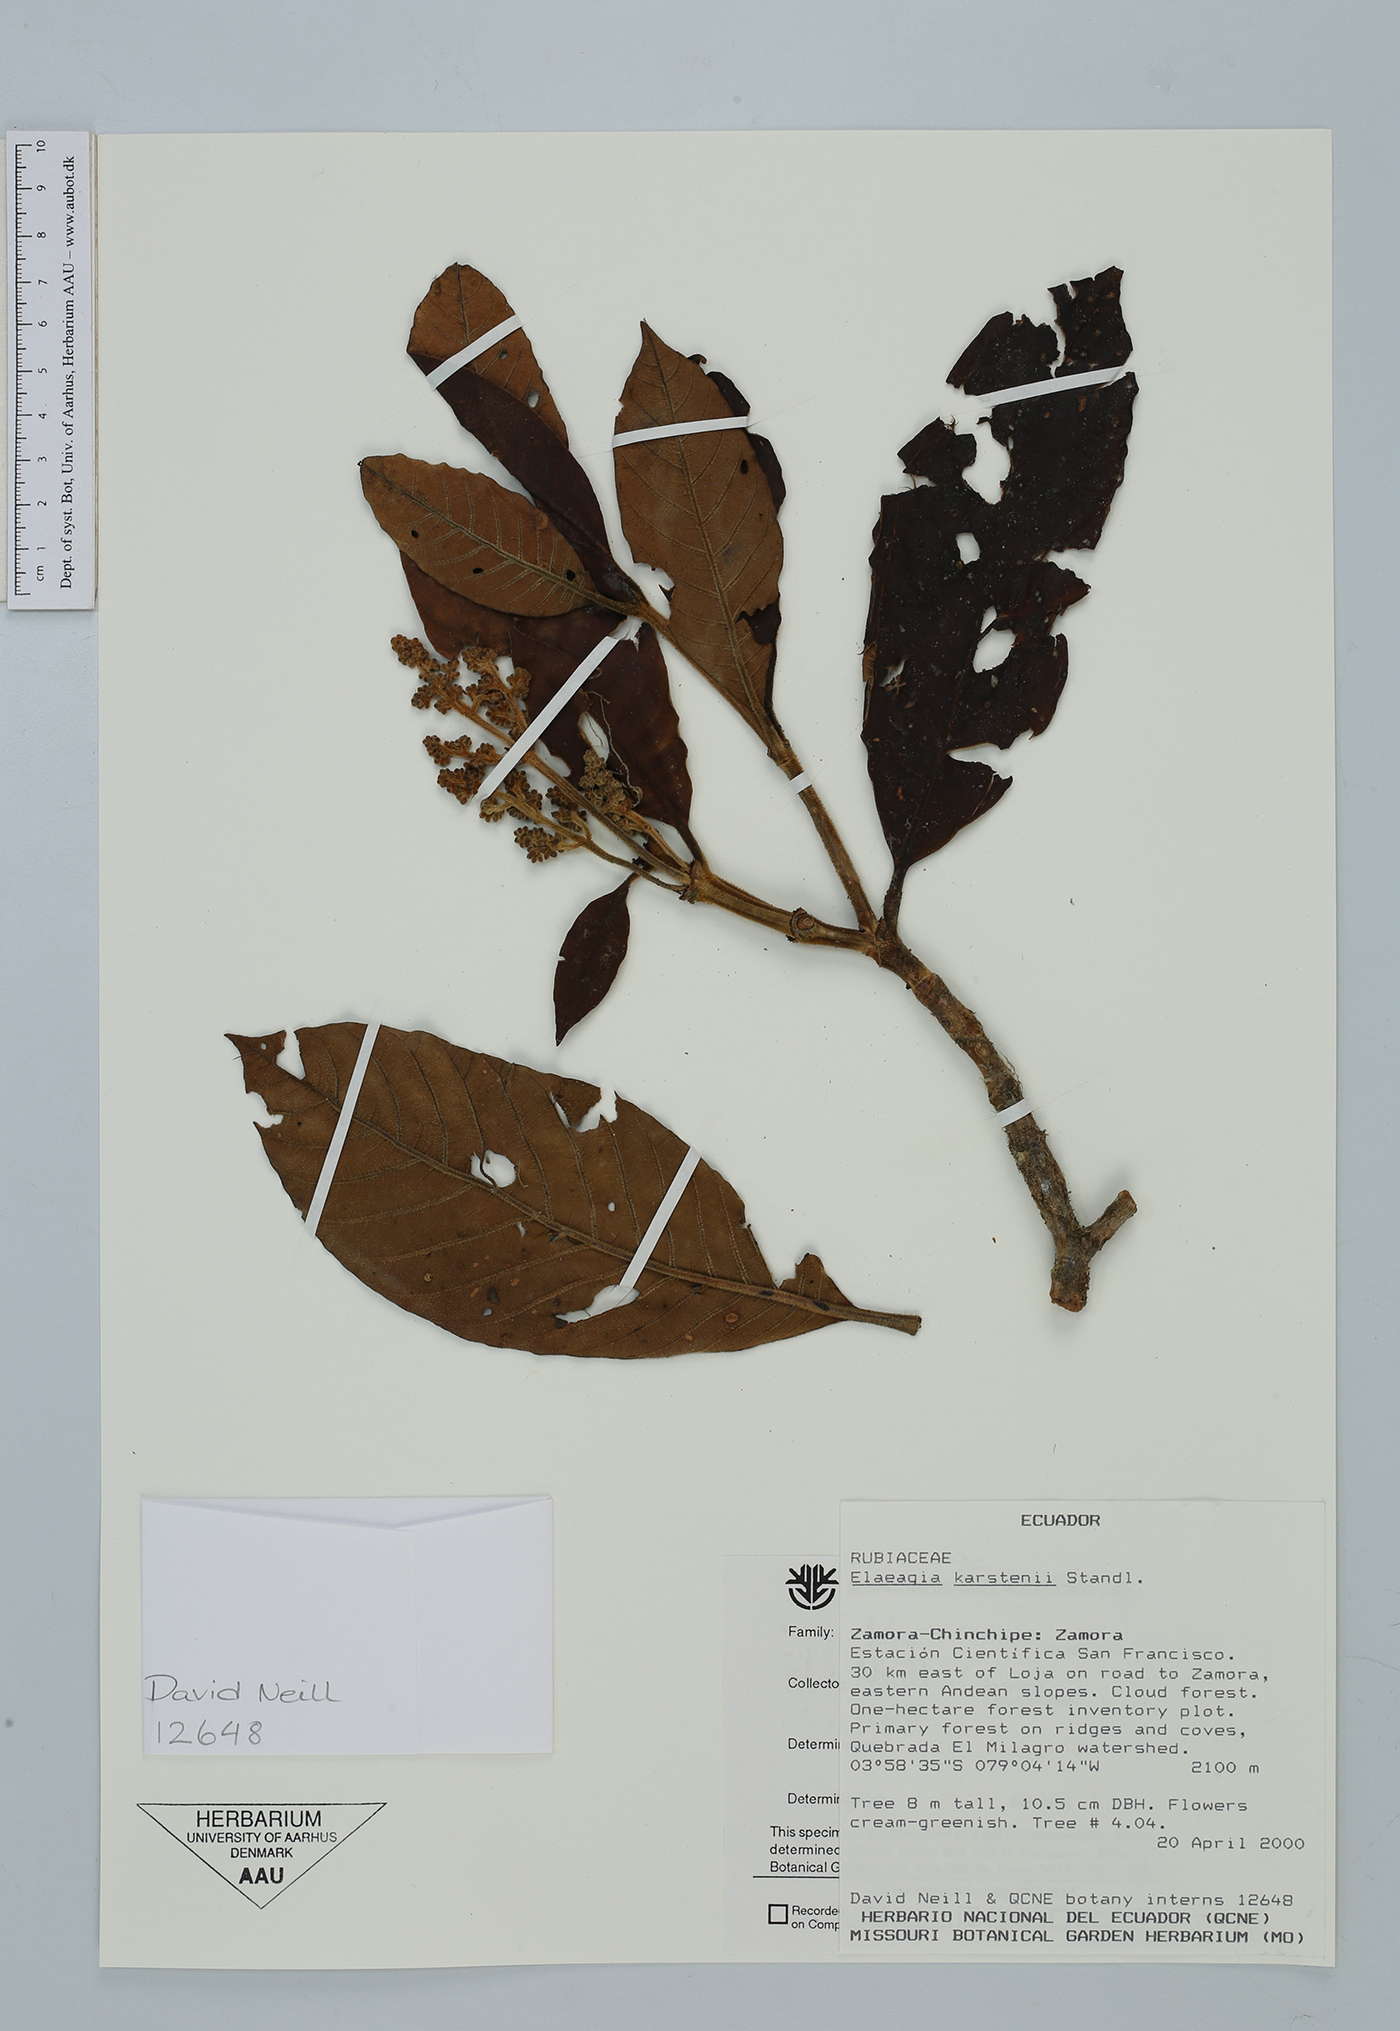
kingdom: Plantae
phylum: Tracheophyta
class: Magnoliopsida
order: Gentianales
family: Rubiaceae
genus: Elaeagia
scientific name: Elaeagia karstenii
